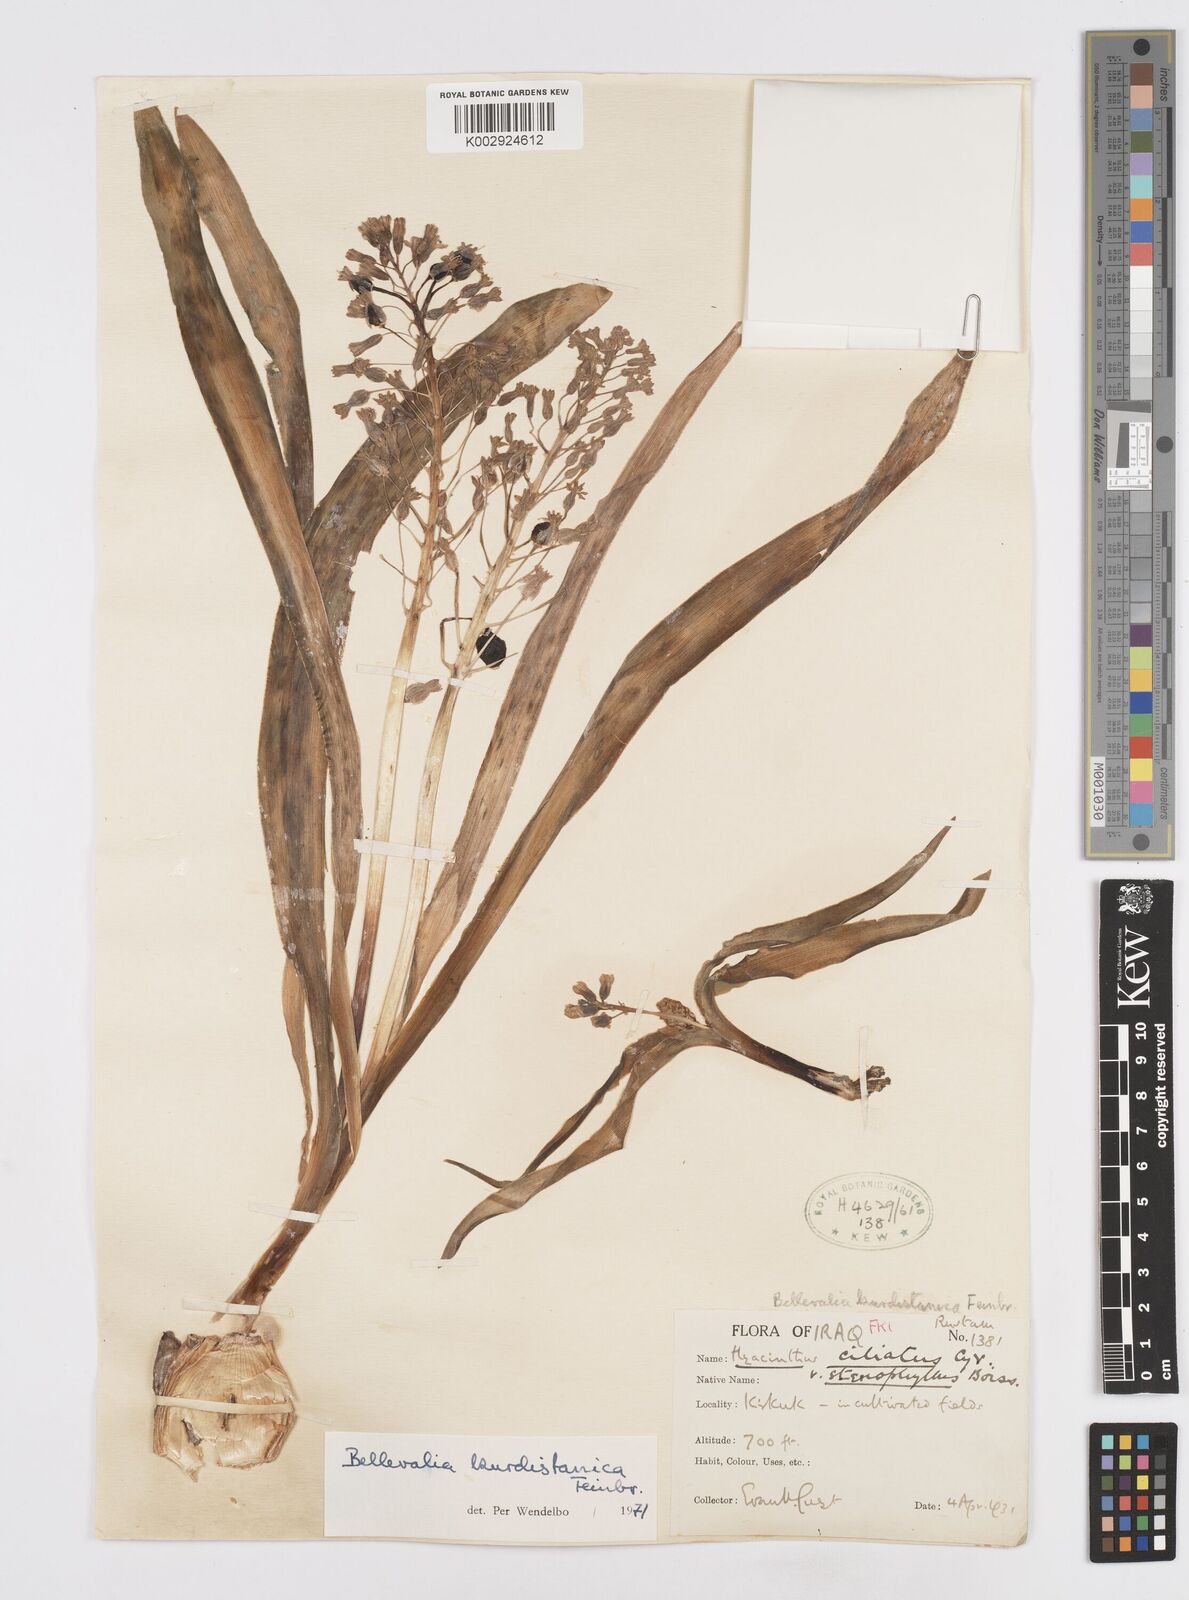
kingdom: Plantae
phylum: Tracheophyta
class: Liliopsida
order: Asparagales
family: Asparagaceae
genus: Bellevalia
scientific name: Bellevalia kurdistanica
